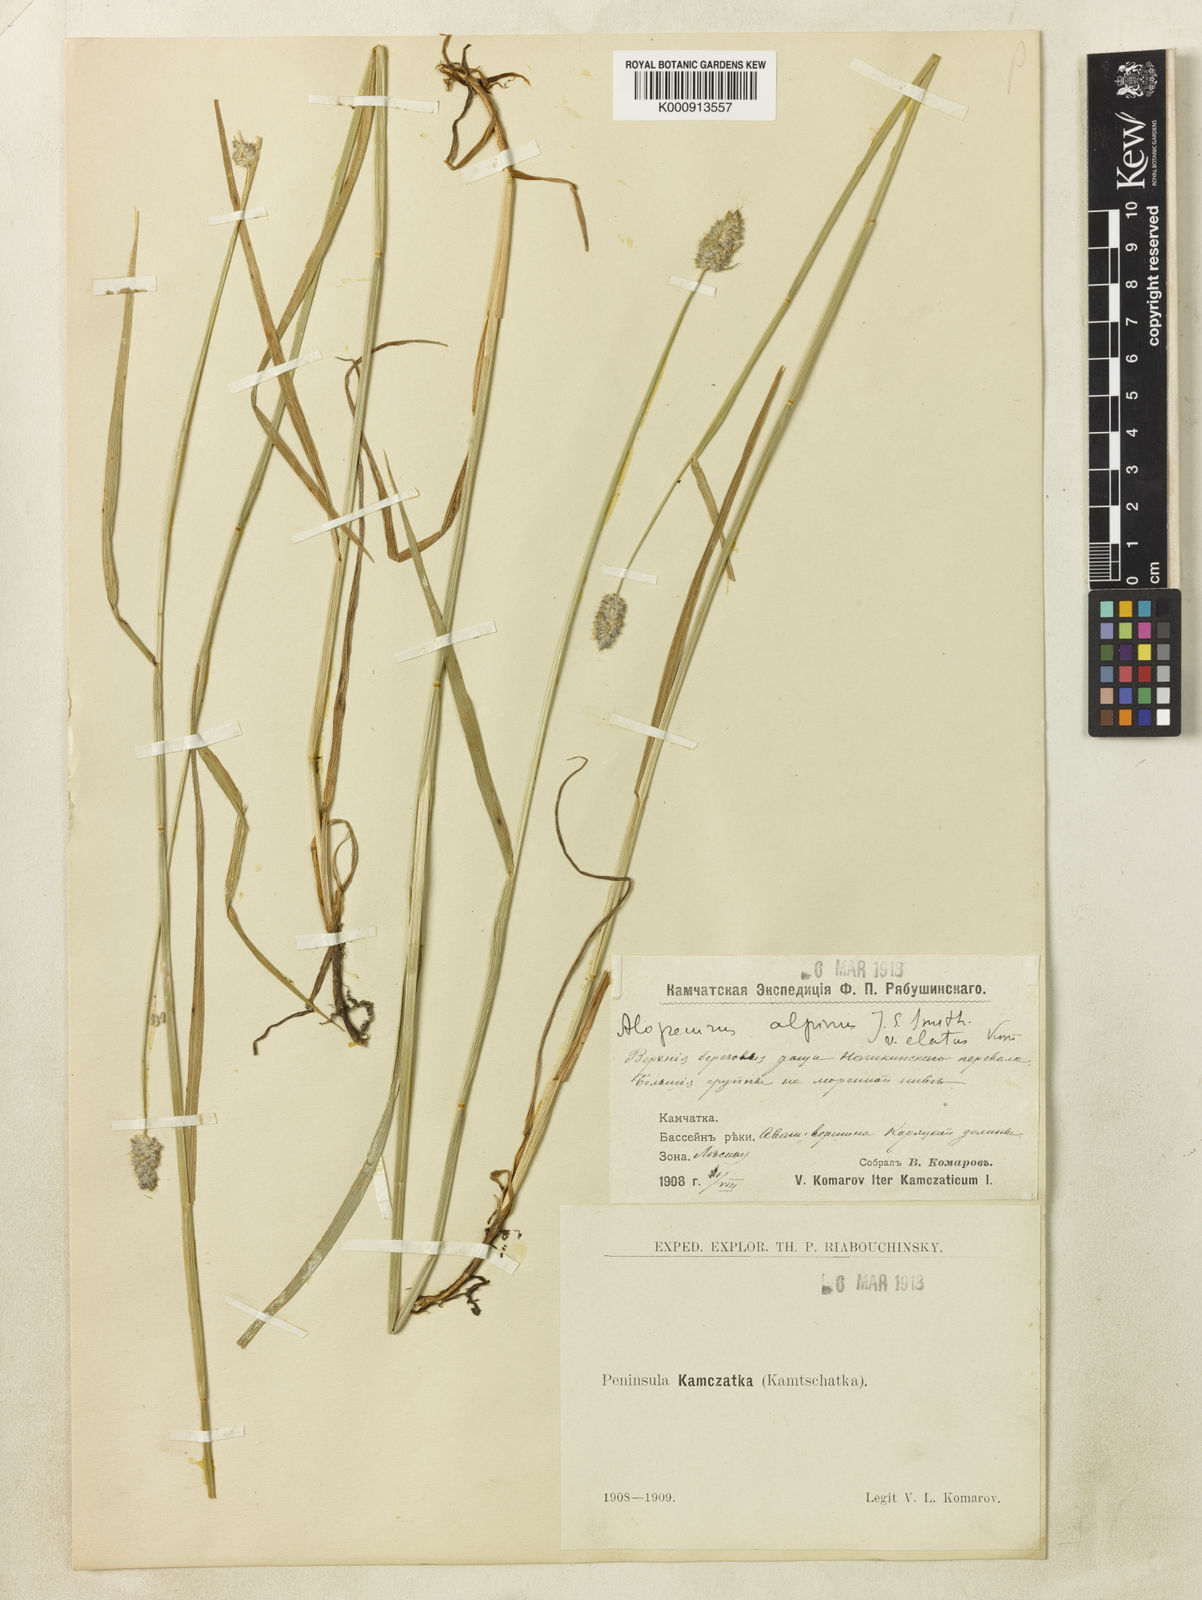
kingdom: Plantae
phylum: Tracheophyta
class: Liliopsida
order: Poales
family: Poaceae
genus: Alopecurus
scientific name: Alopecurus gerardii
